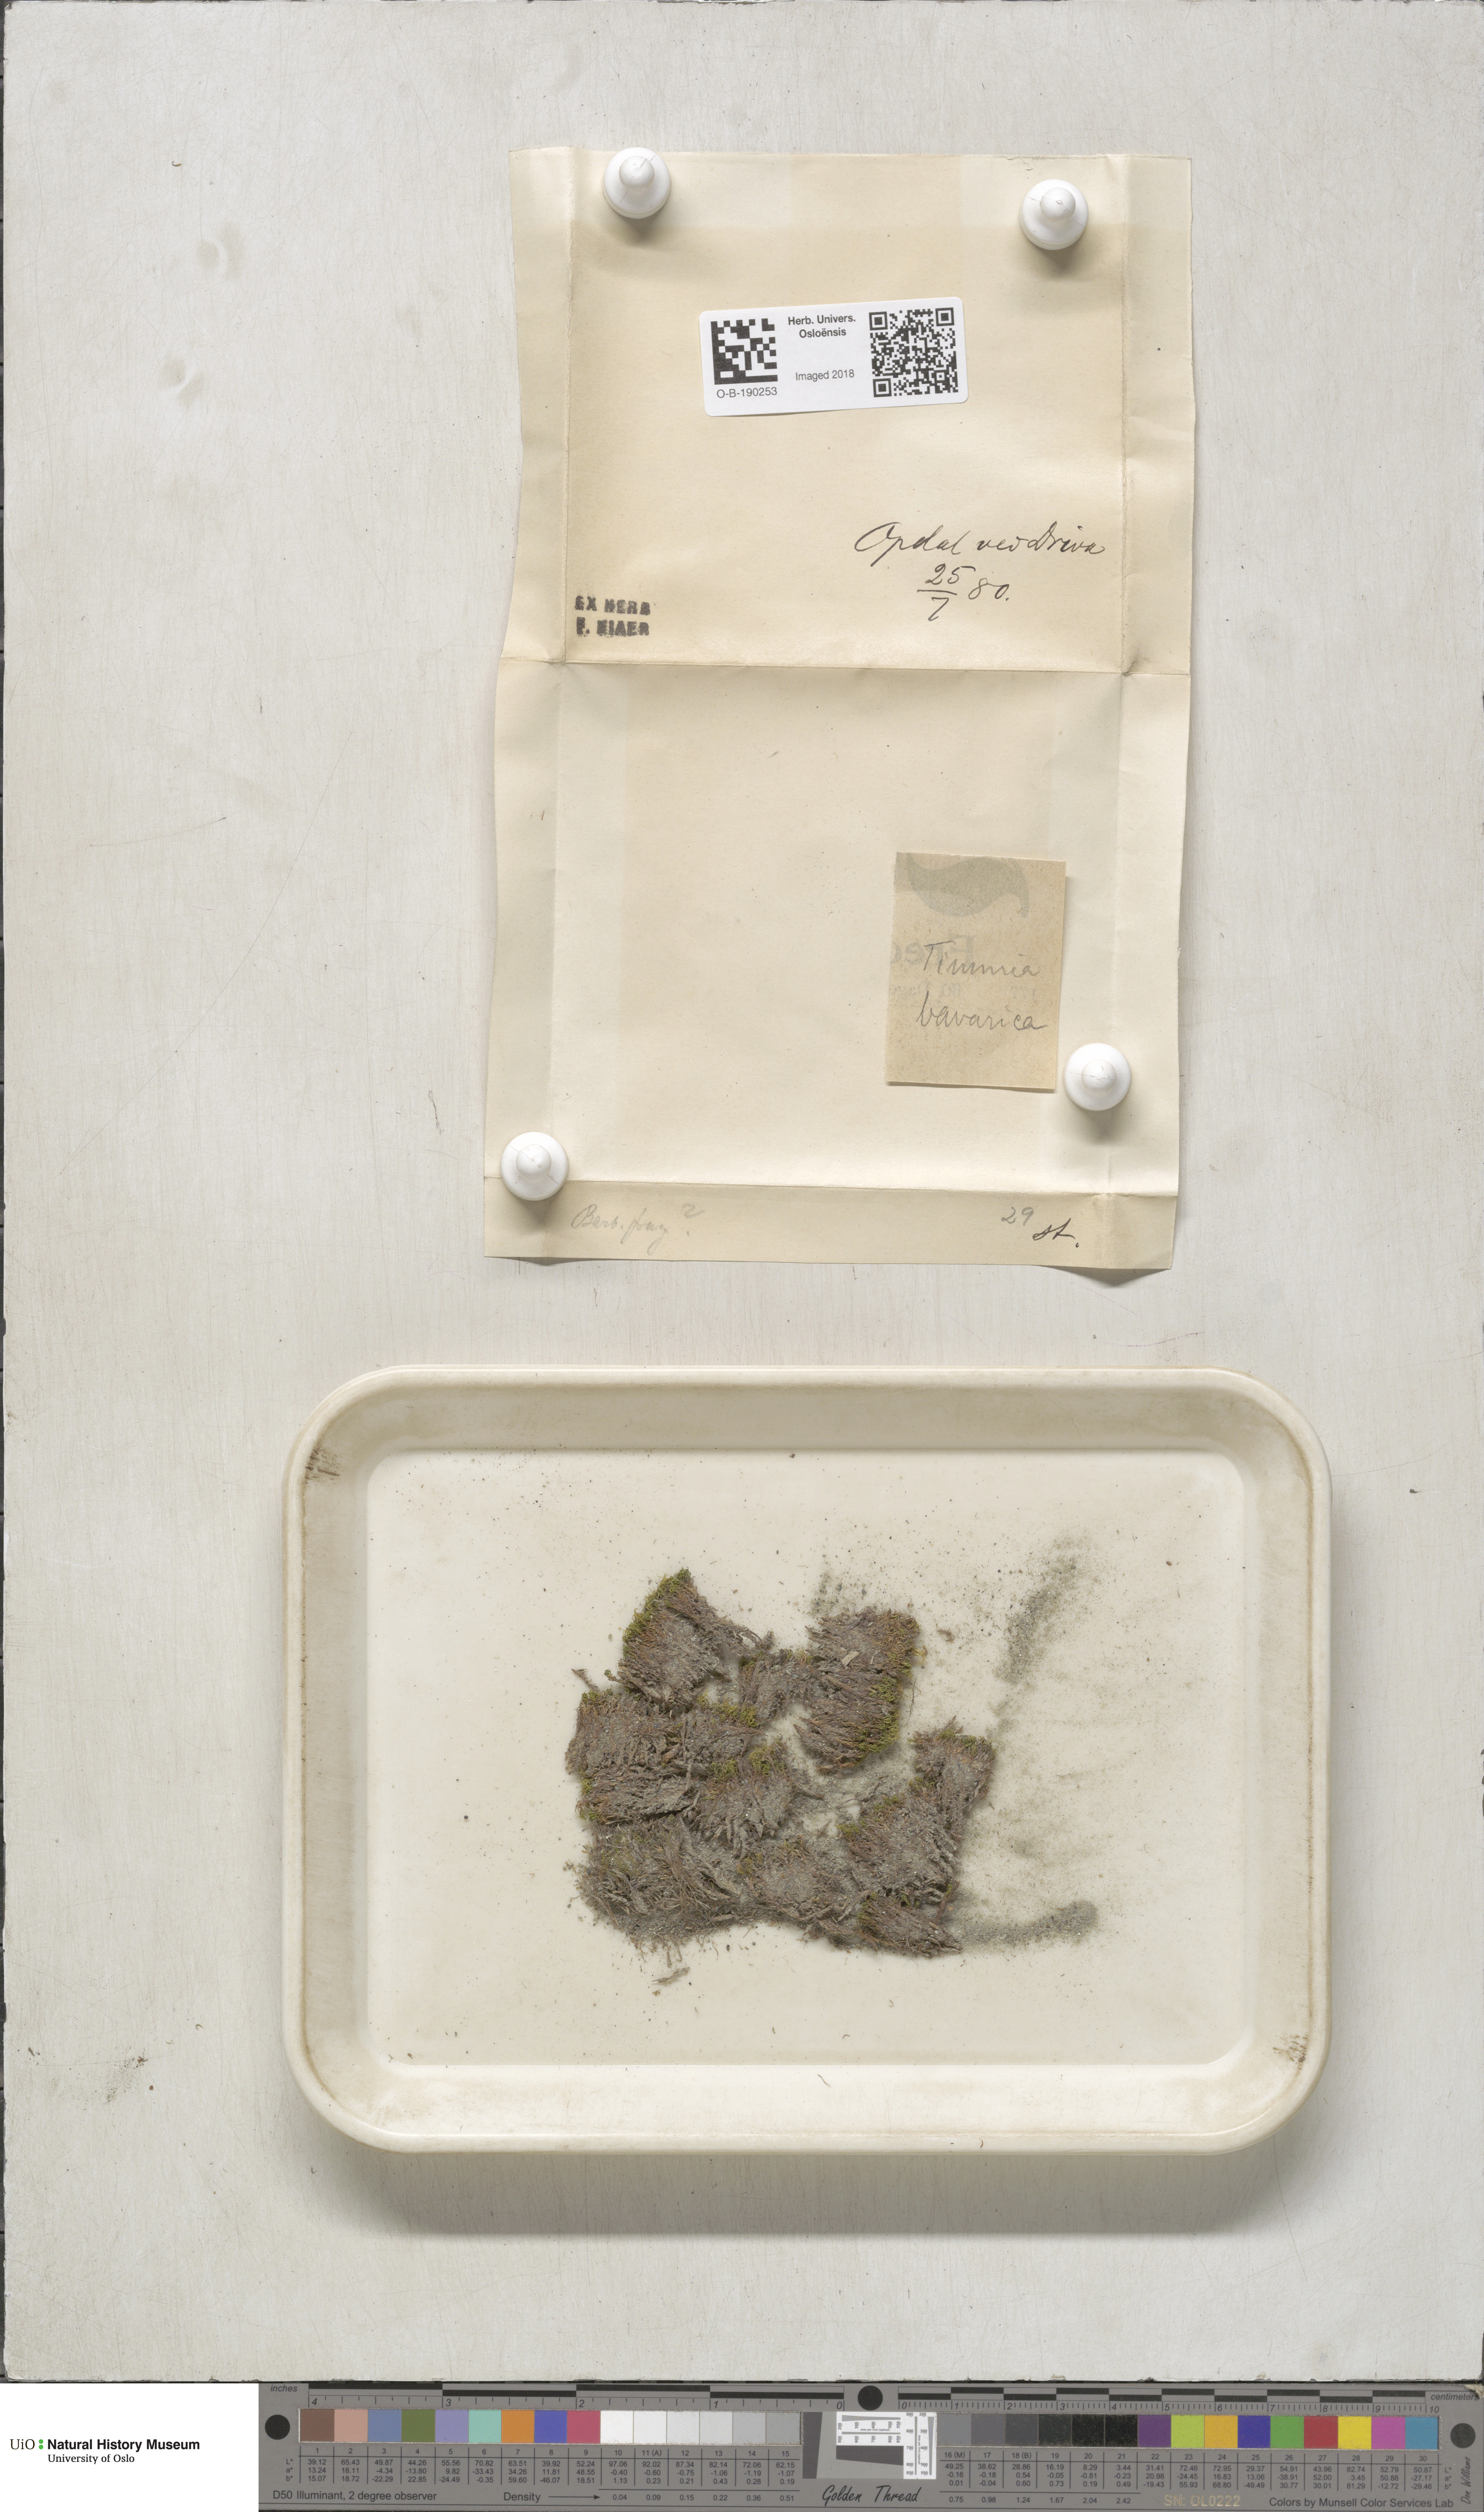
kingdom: Plantae
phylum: Bryophyta
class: Bryopsida
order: Timmiales
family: Timmiaceae
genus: Timmia
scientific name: Timmia bavarica
